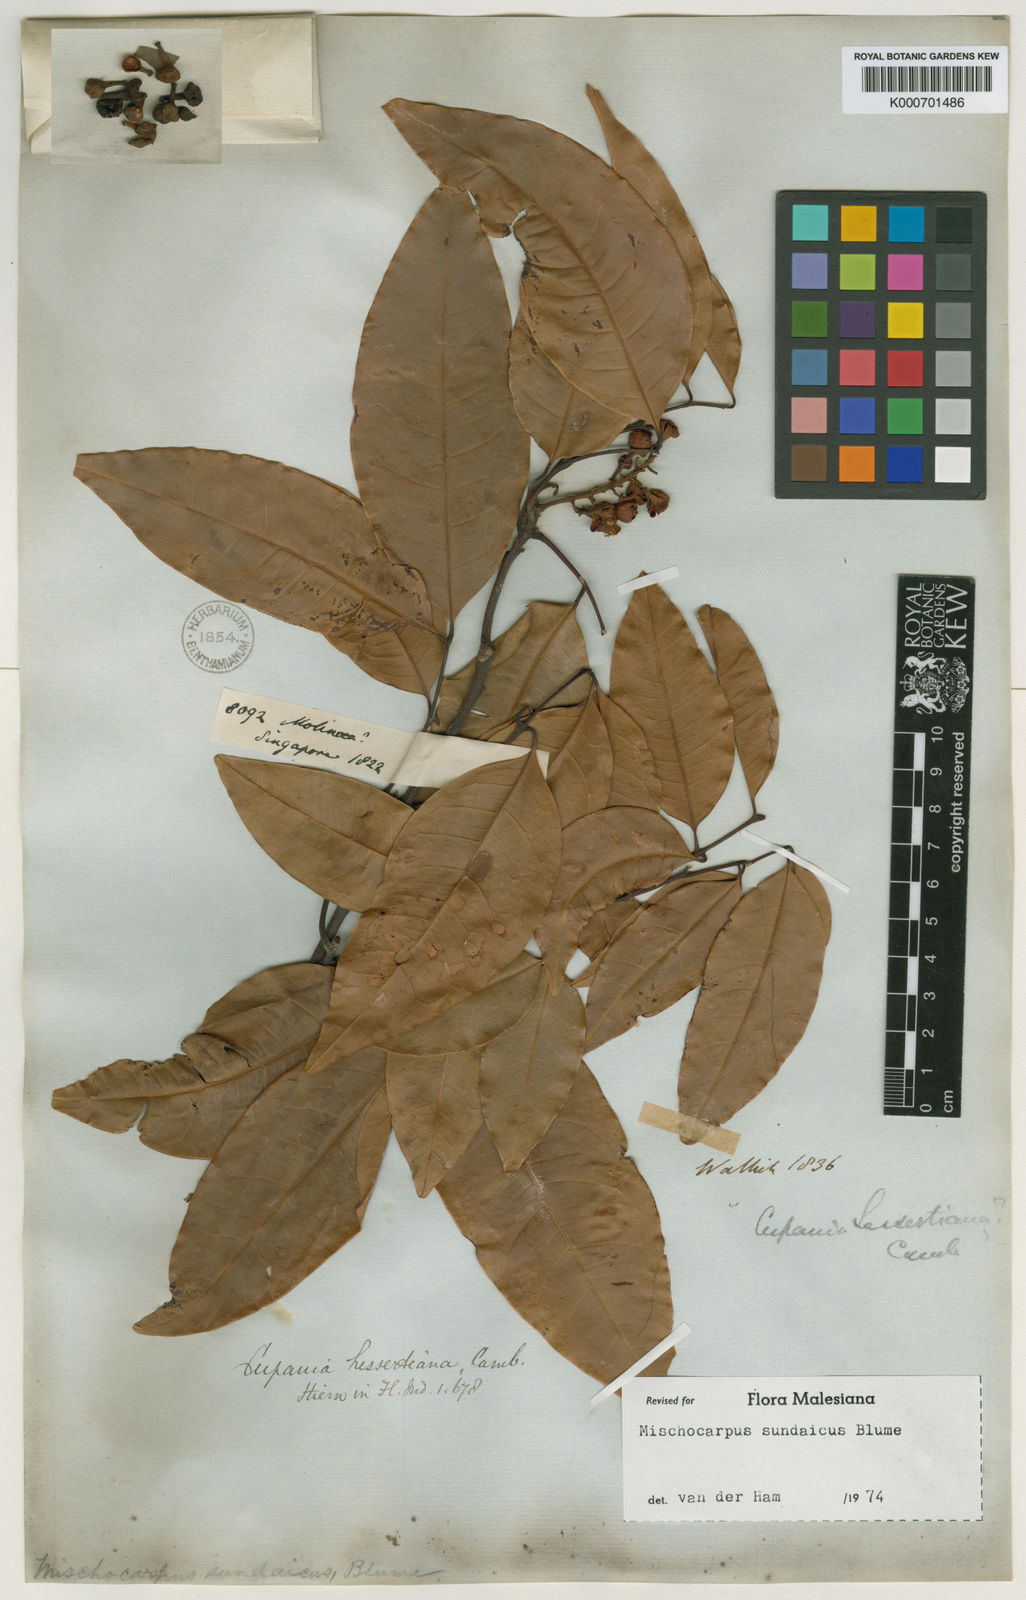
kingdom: Plantae
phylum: Tracheophyta
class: Magnoliopsida
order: Sapindales
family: Sapindaceae
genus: Mischocarpus
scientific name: Mischocarpus sundaicus
